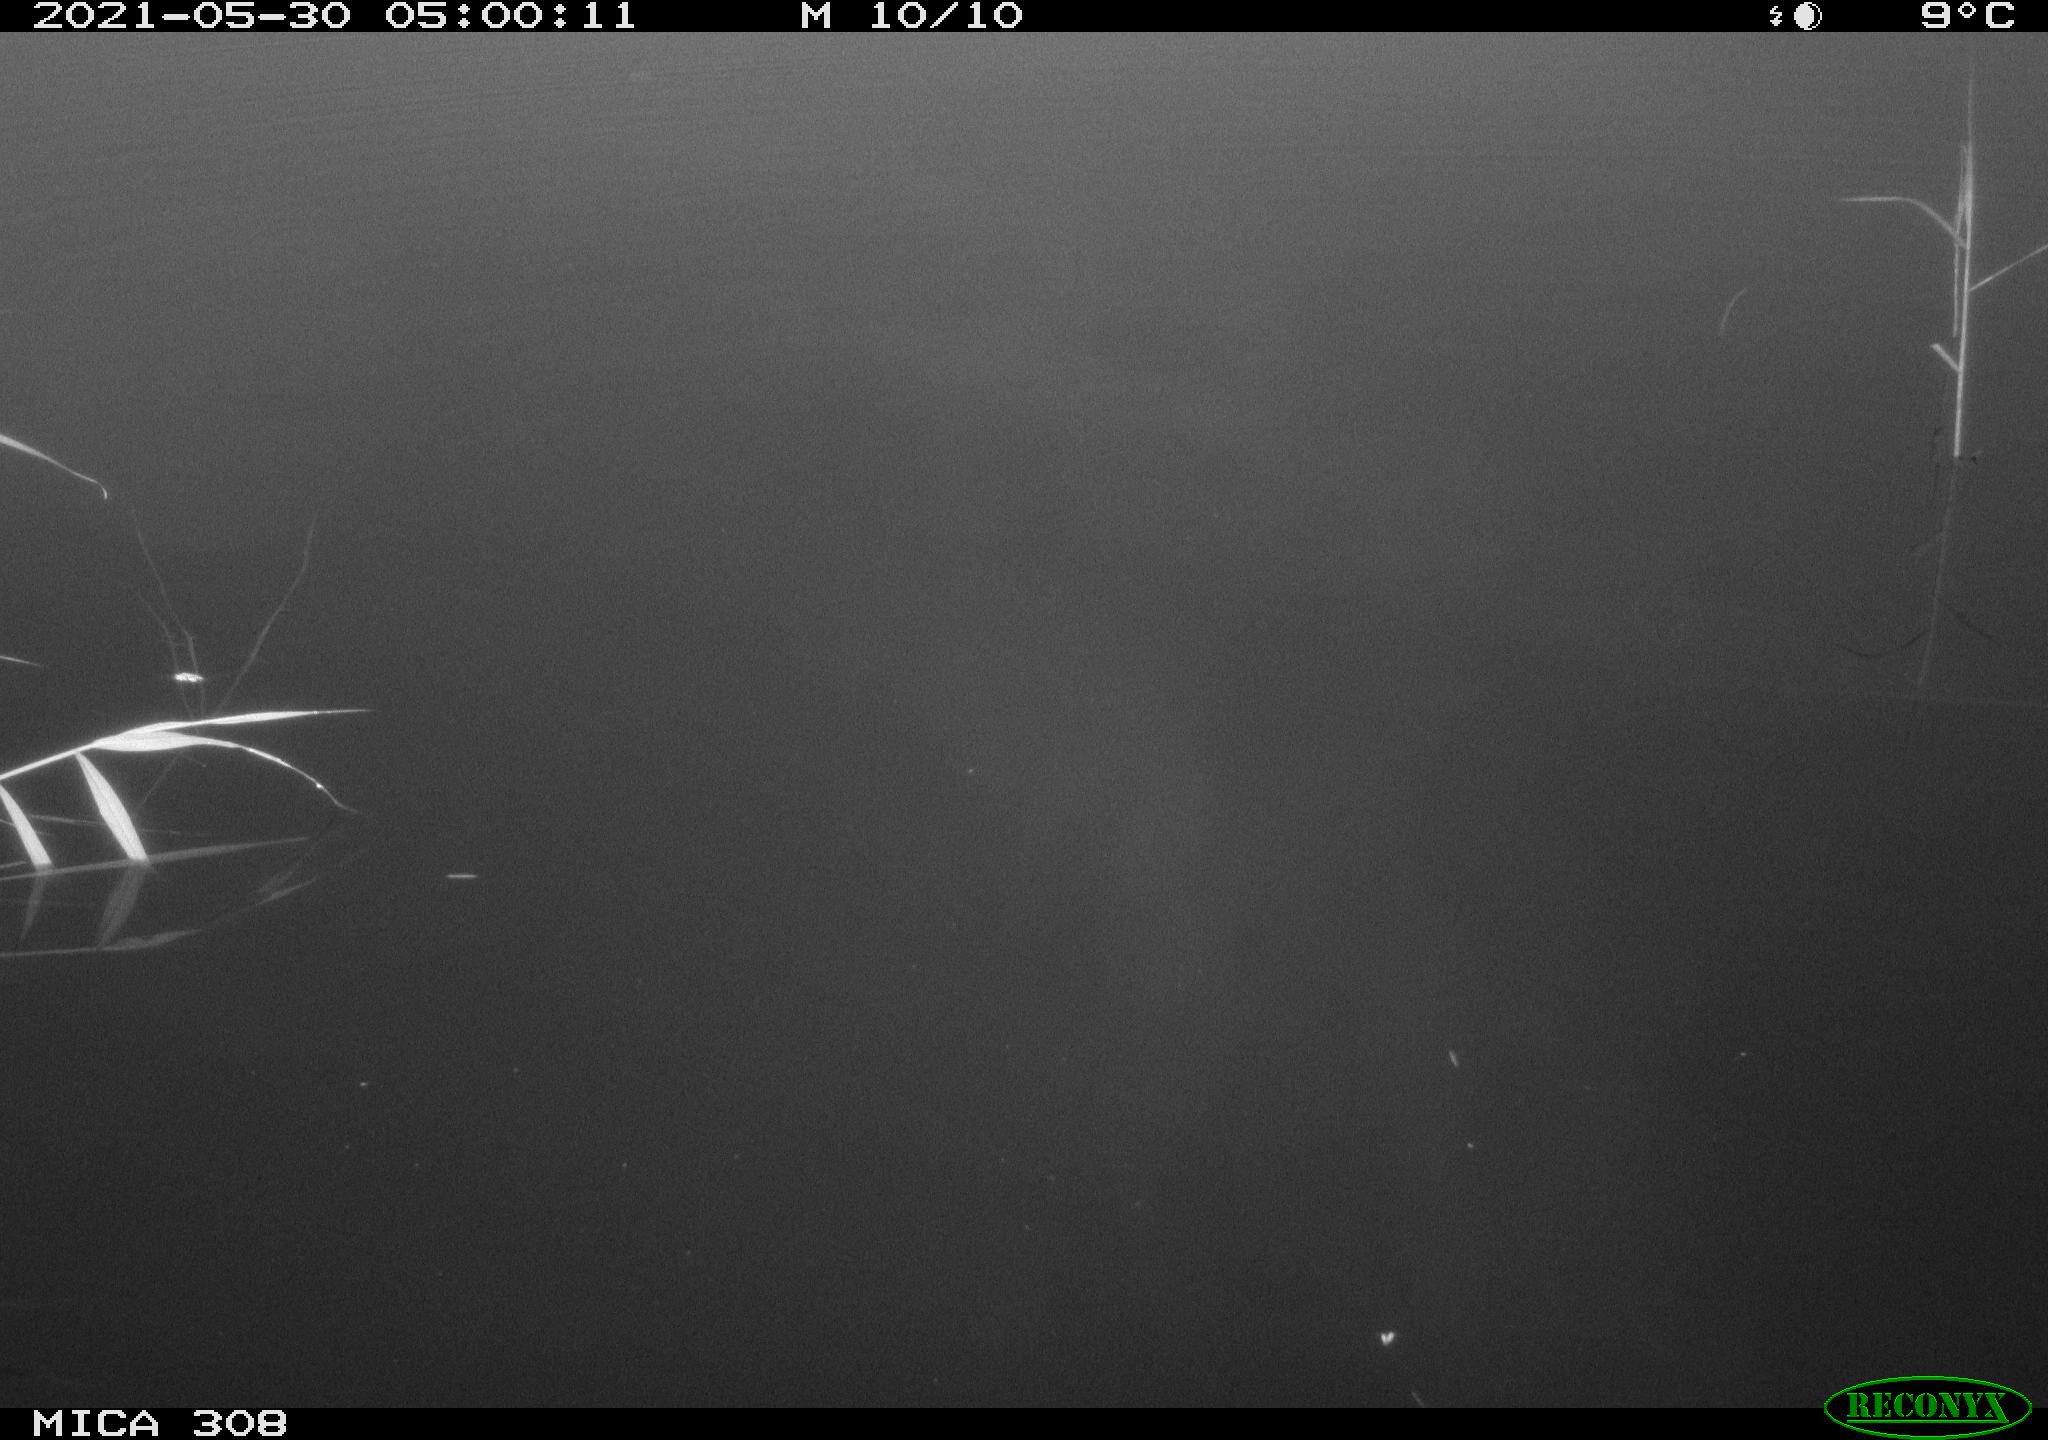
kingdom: Animalia
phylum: Chordata
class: Aves
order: Anseriformes
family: Anatidae
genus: Anas
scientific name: Anas platyrhynchos
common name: Mallard
